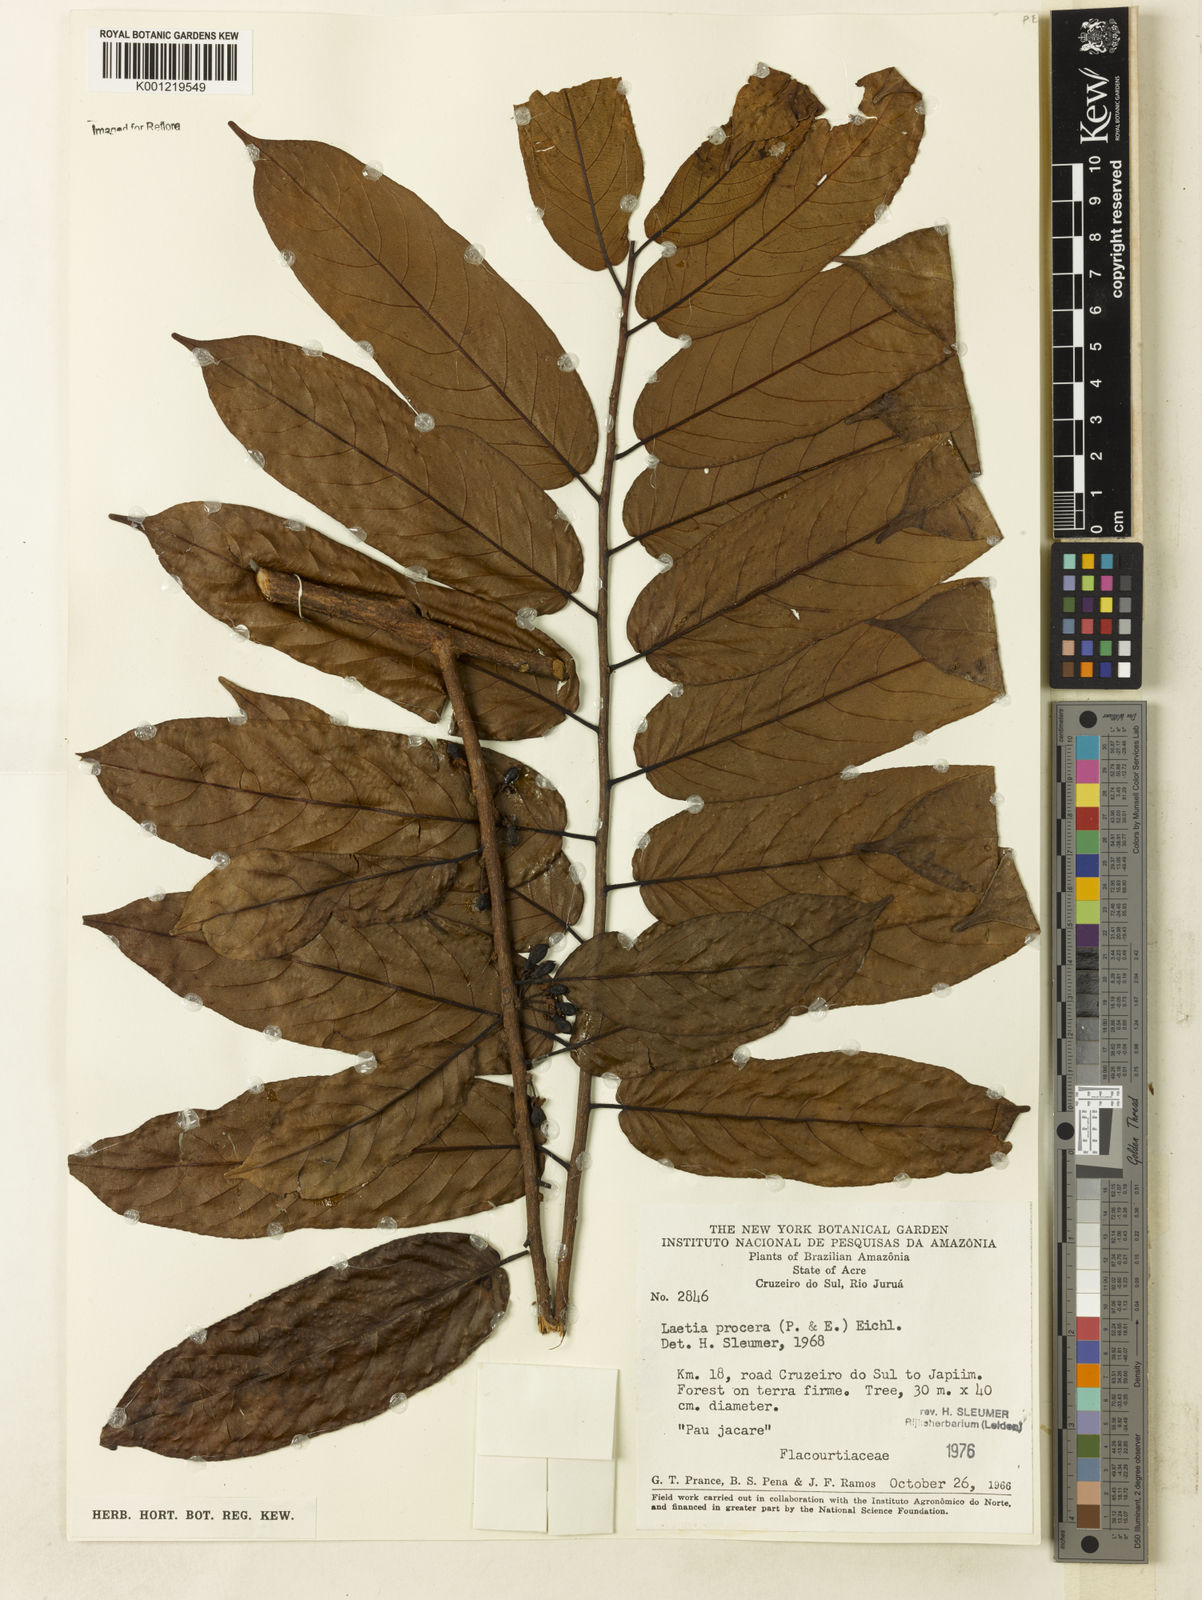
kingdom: Plantae
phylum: Tracheophyta
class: Magnoliopsida
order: Malpighiales
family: Salicaceae
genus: Casearia
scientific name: Casearia bicolor
